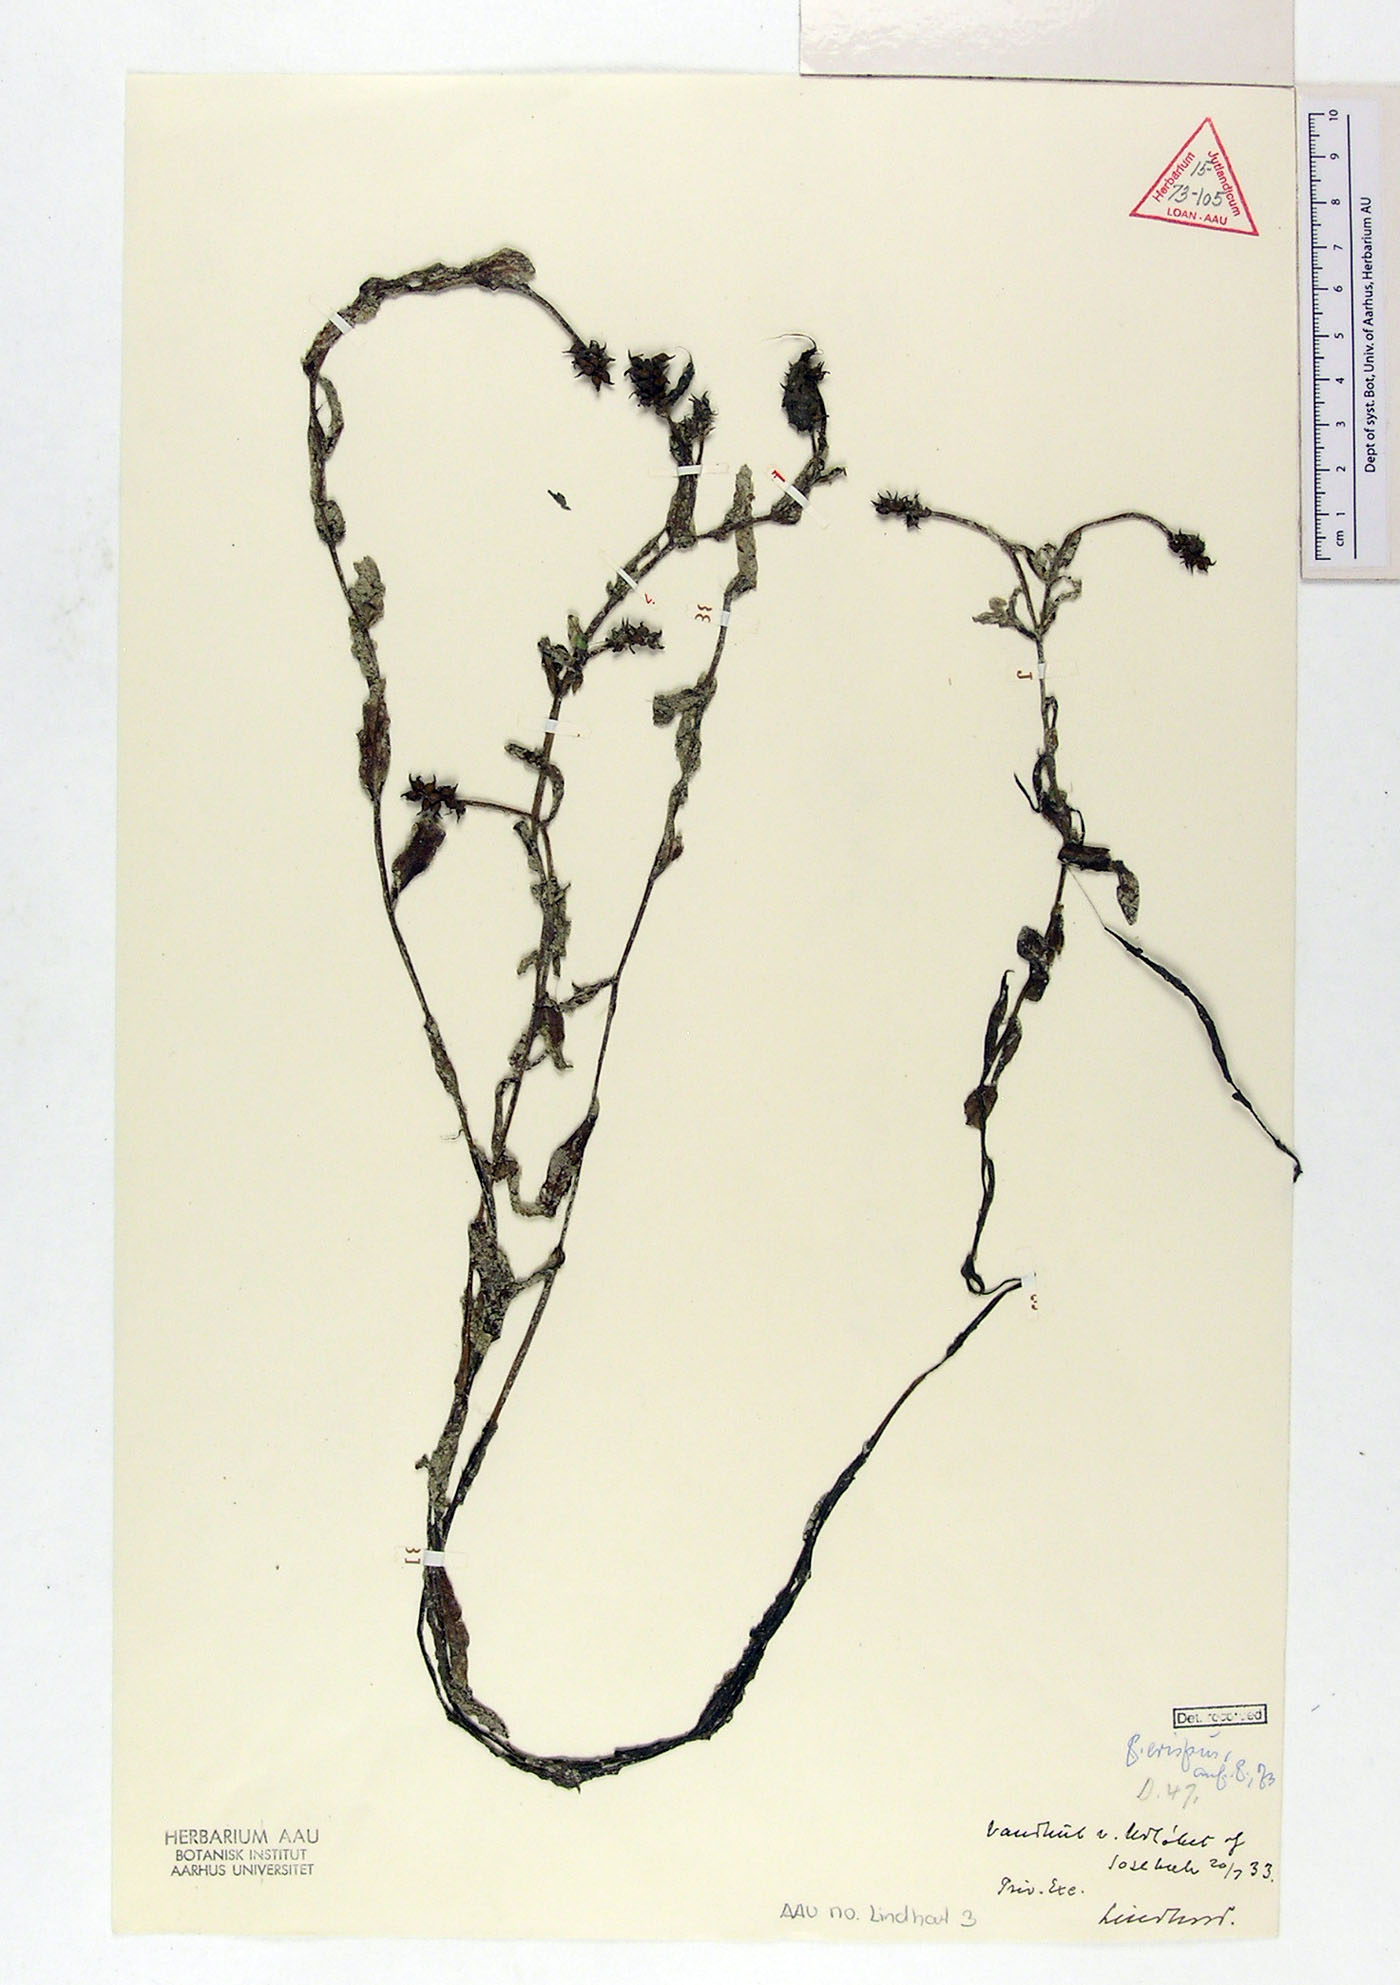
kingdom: Plantae
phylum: Tracheophyta
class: Liliopsida
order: Alismatales
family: Potamogetonaceae
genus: Potamogeton
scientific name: Potamogeton crispus
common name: Curled pondweed
